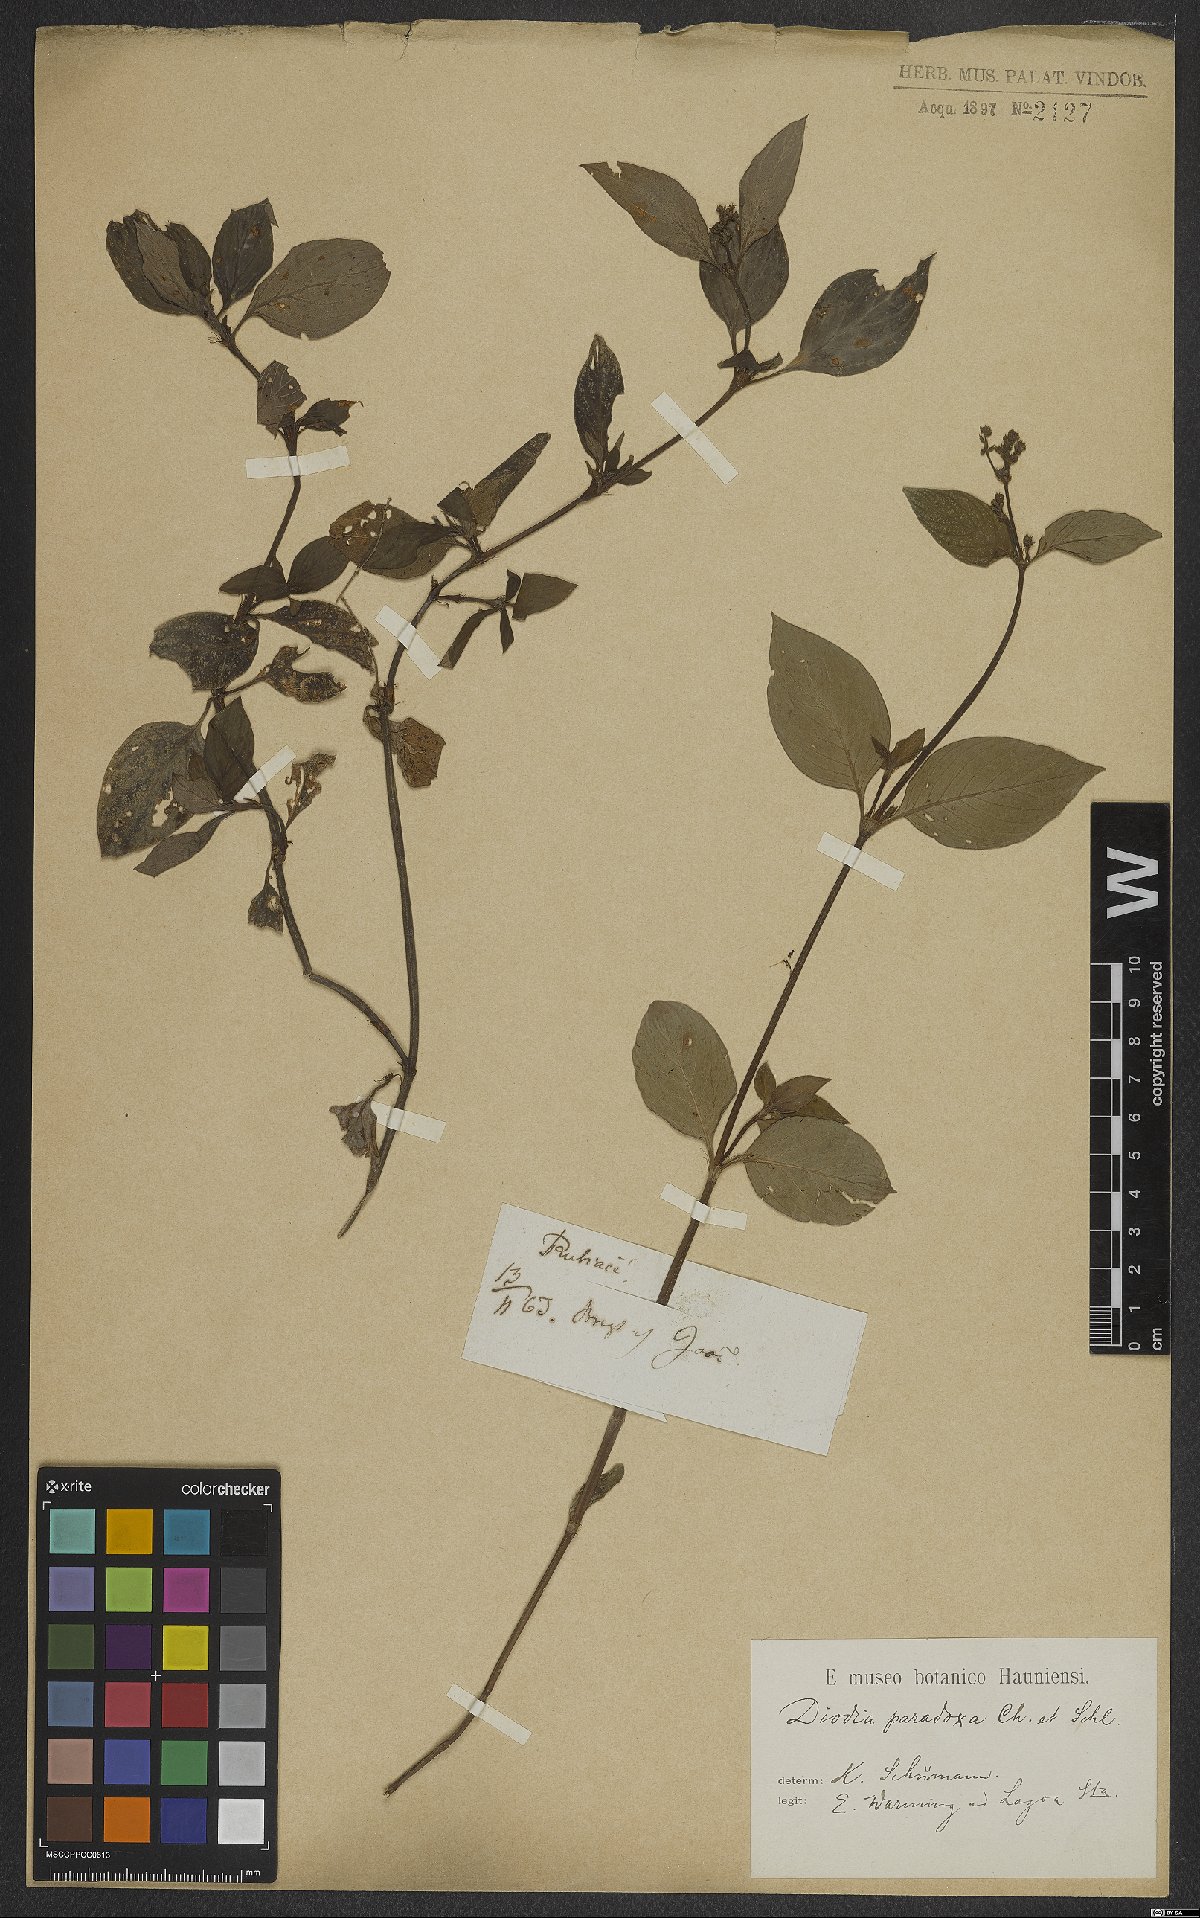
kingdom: Plantae
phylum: Tracheophyta
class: Magnoliopsida
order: Gentianales
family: Rubiaceae
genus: Galianthe
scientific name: Galianthe hispidula
